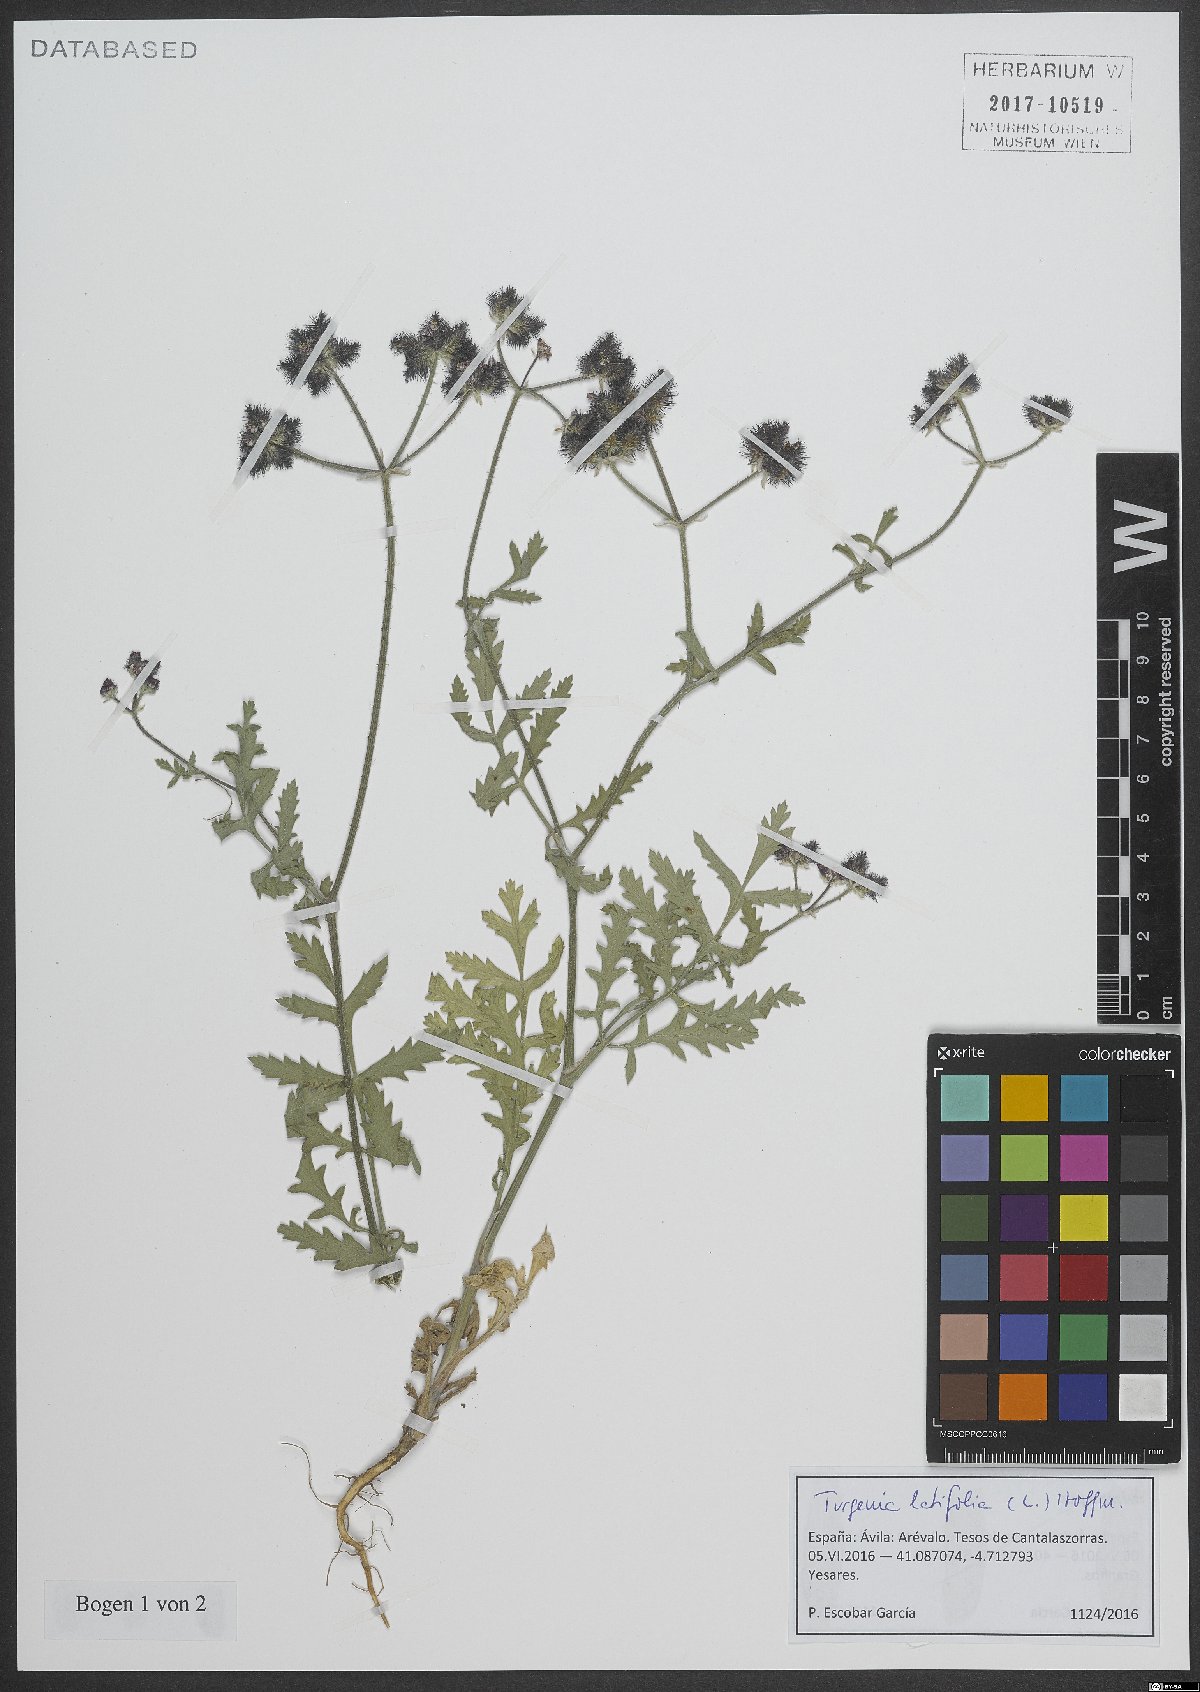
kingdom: Plantae
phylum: Tracheophyta
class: Magnoliopsida
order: Apiales
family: Apiaceae
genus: Turgenia
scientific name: Turgenia latifolia
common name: Greater bur-parsley
